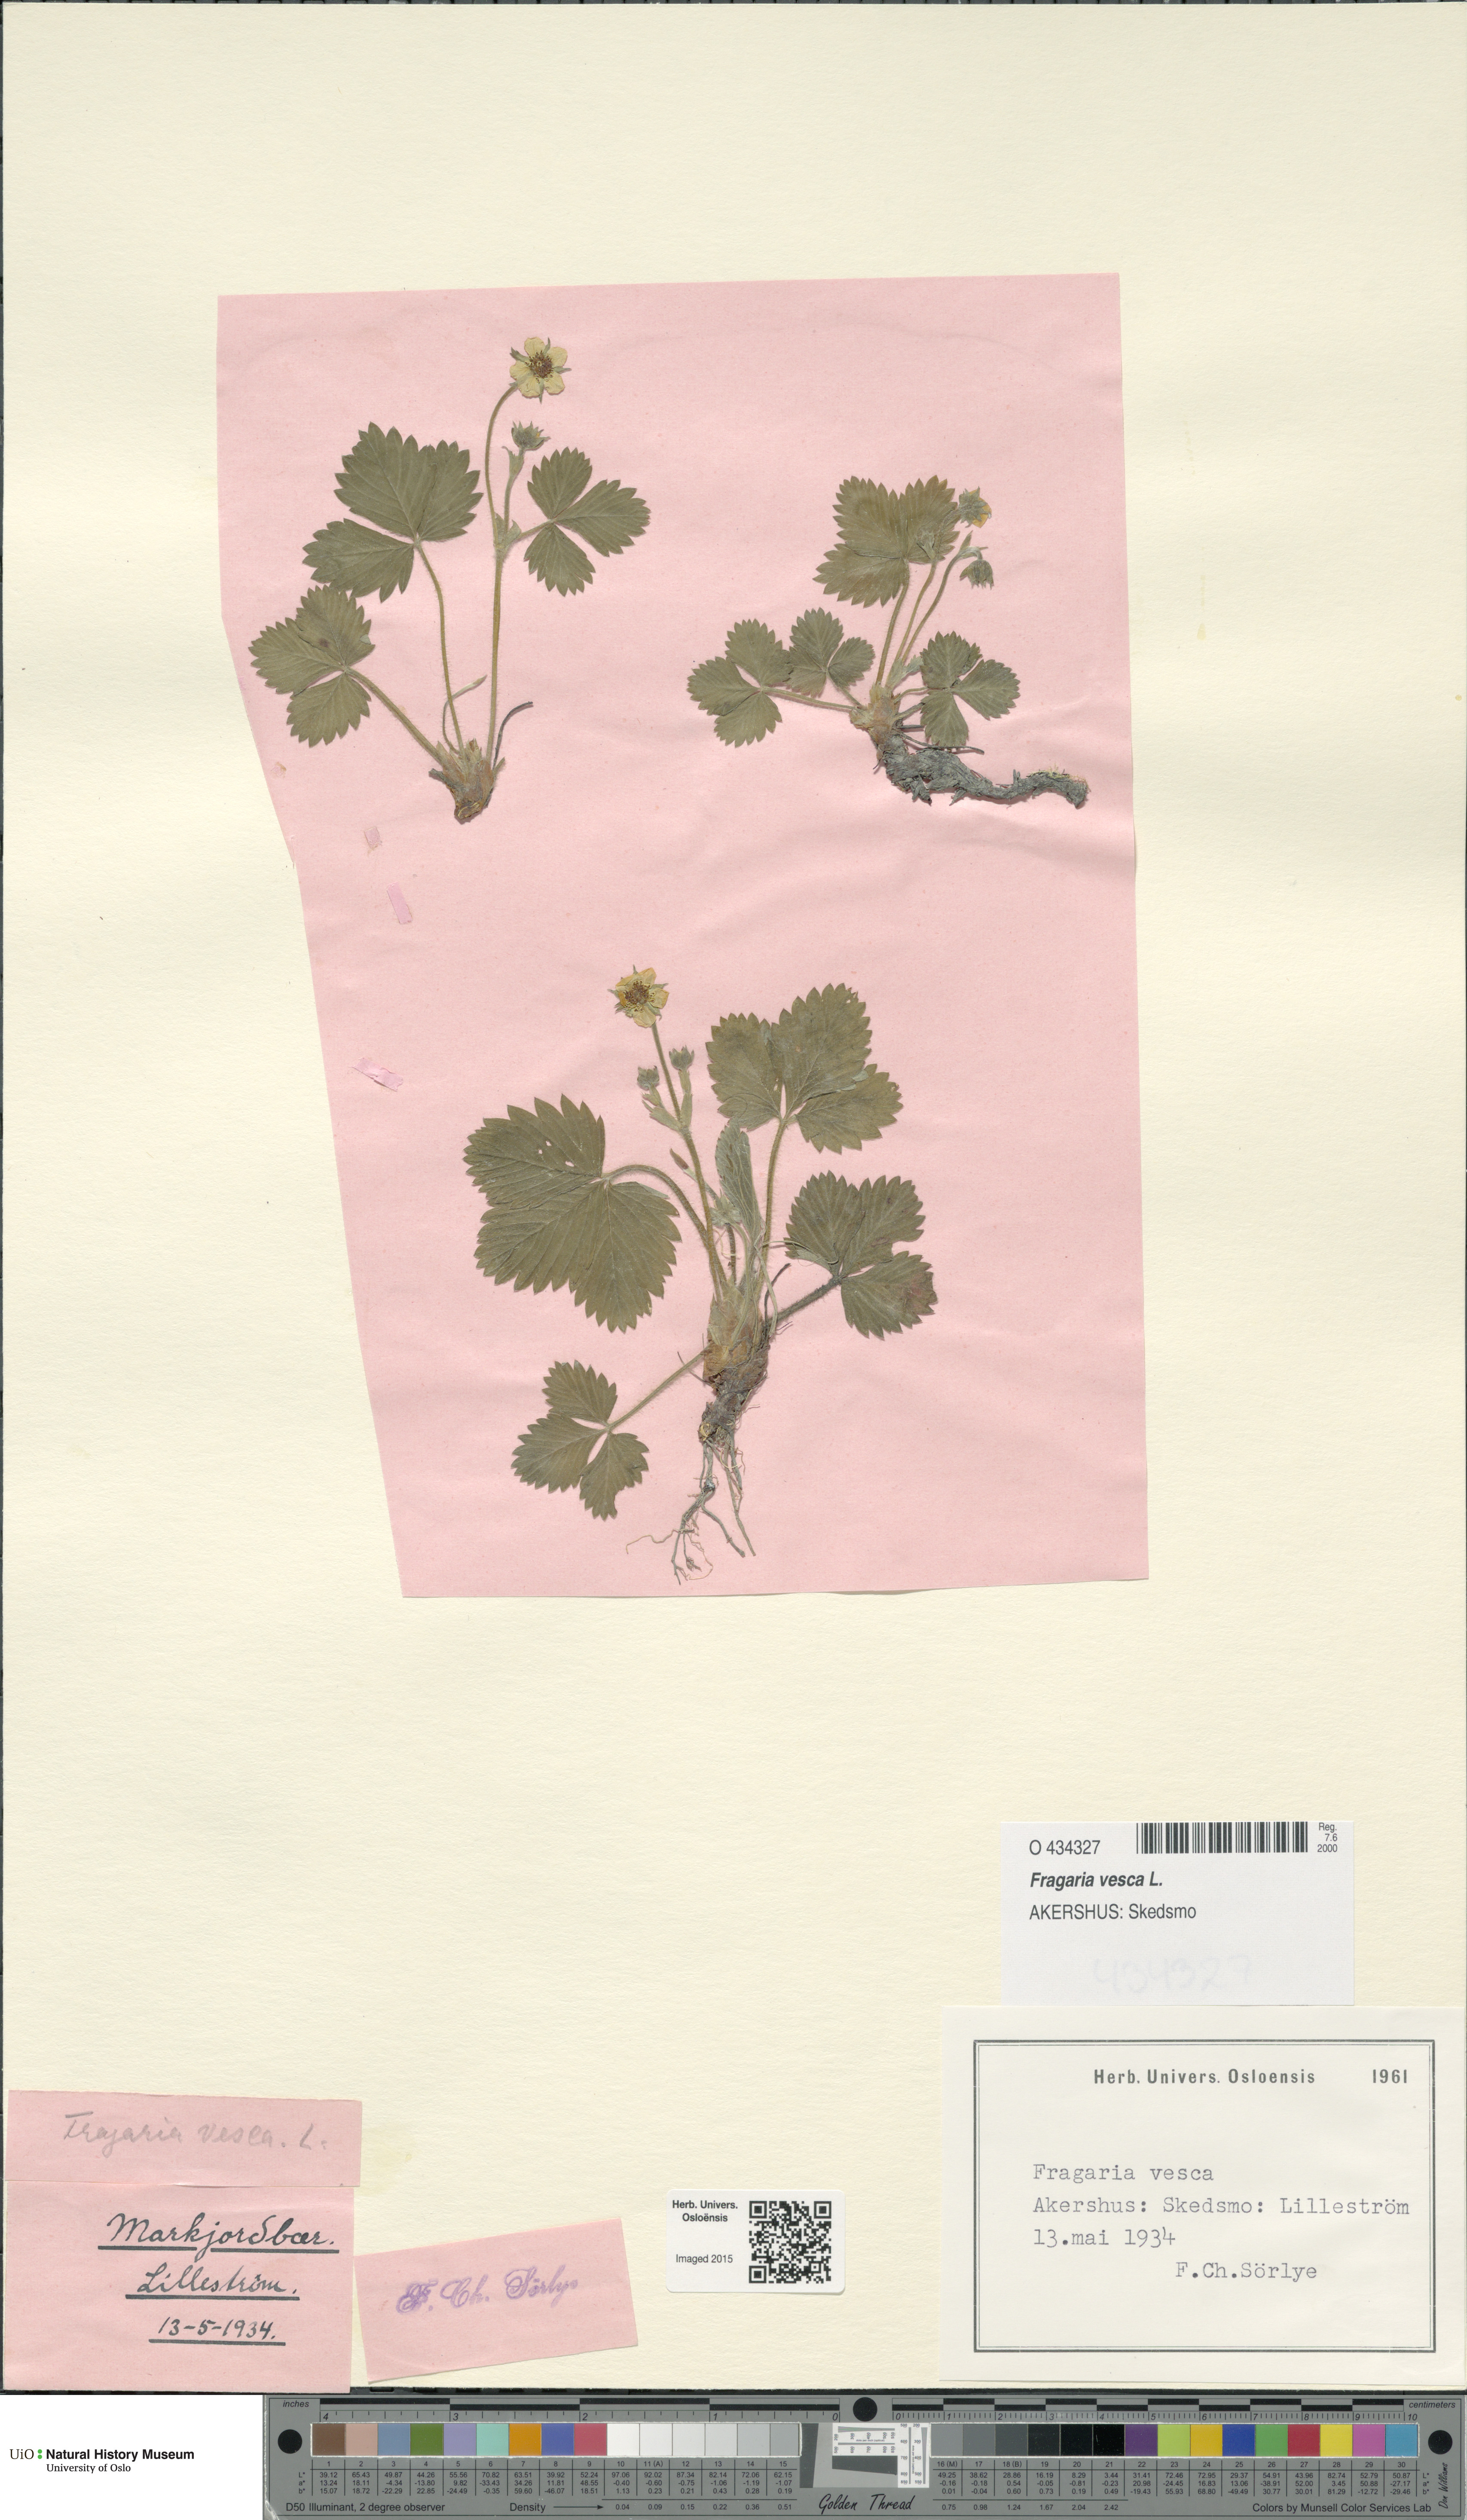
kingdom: Plantae
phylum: Tracheophyta
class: Magnoliopsida
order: Rosales
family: Rosaceae
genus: Fragaria
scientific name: Fragaria vesca
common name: Wild strawberry
